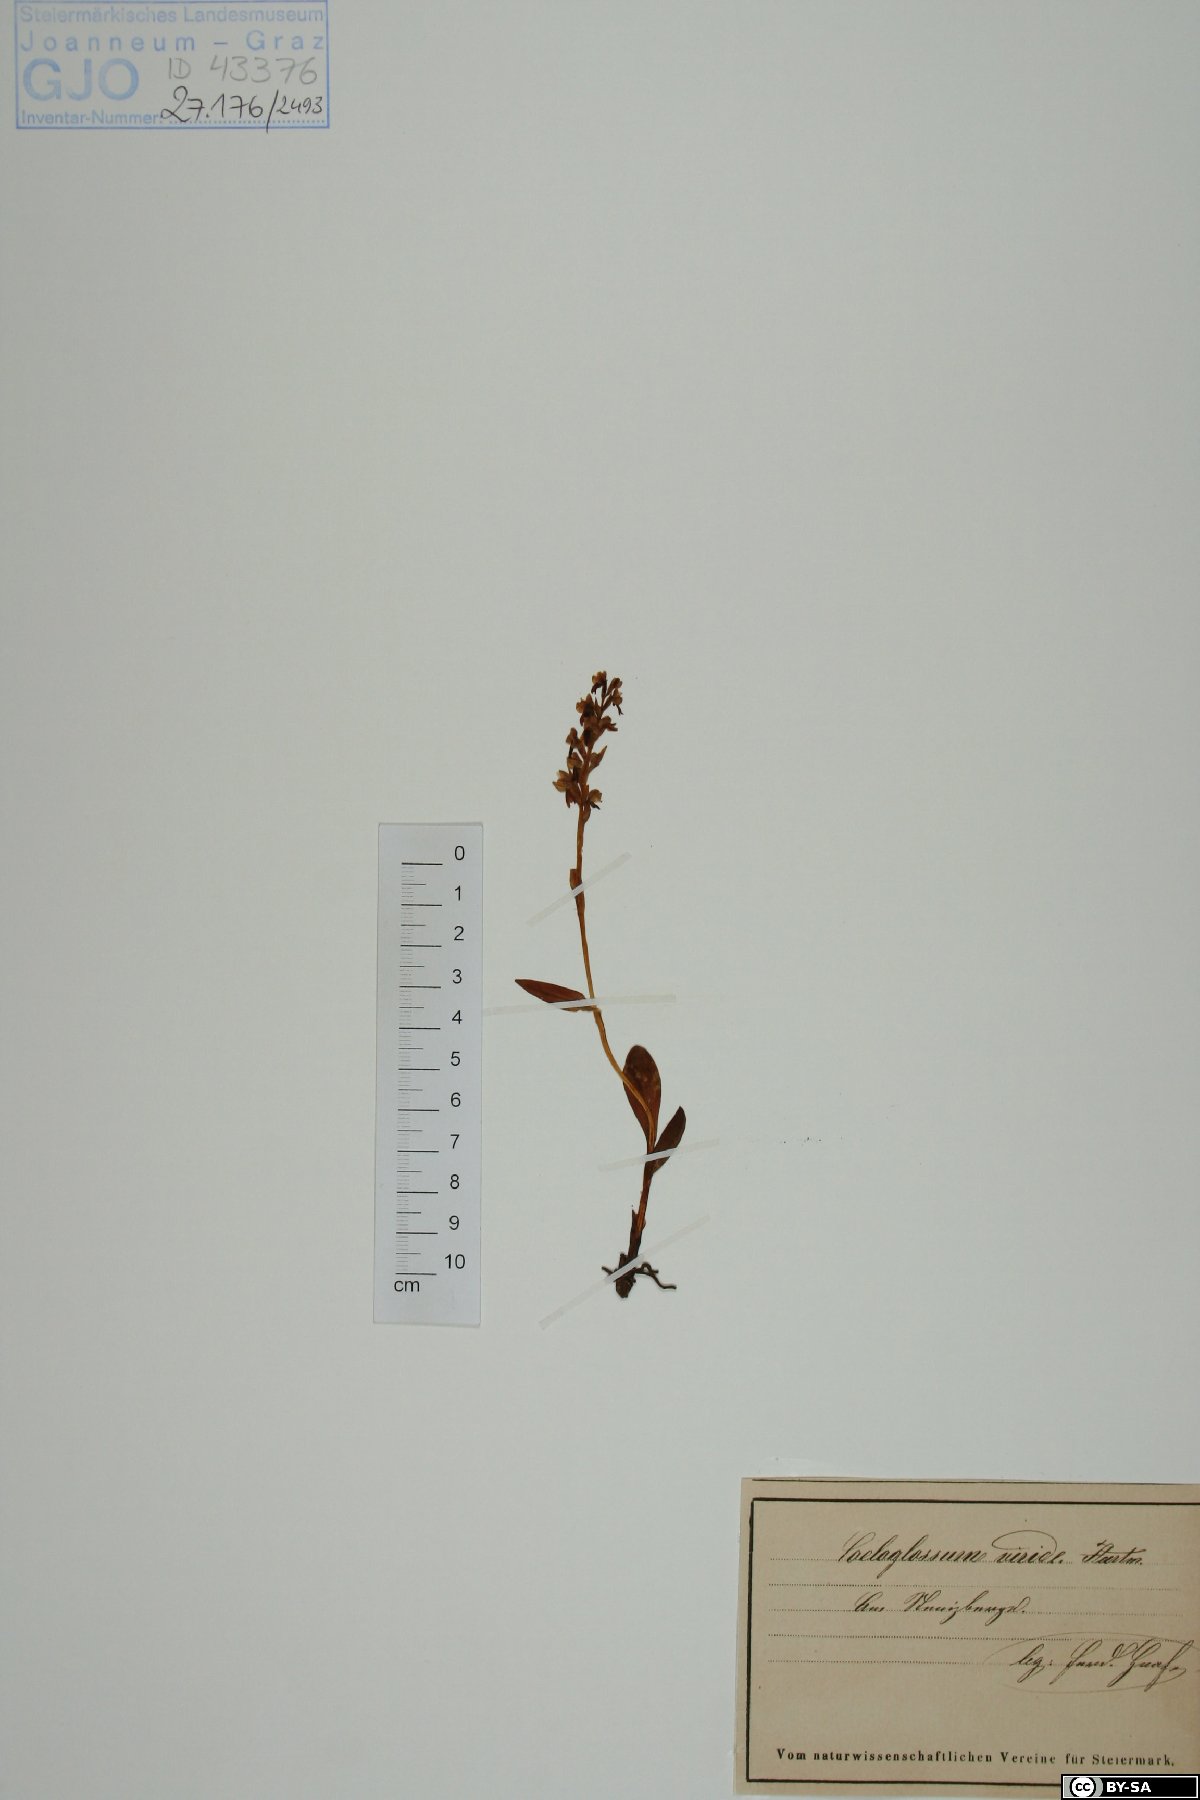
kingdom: Plantae
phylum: Tracheophyta
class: Liliopsida
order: Asparagales
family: Orchidaceae
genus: Dactylorhiza
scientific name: Dactylorhiza viridis
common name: Longbract frog orchid
